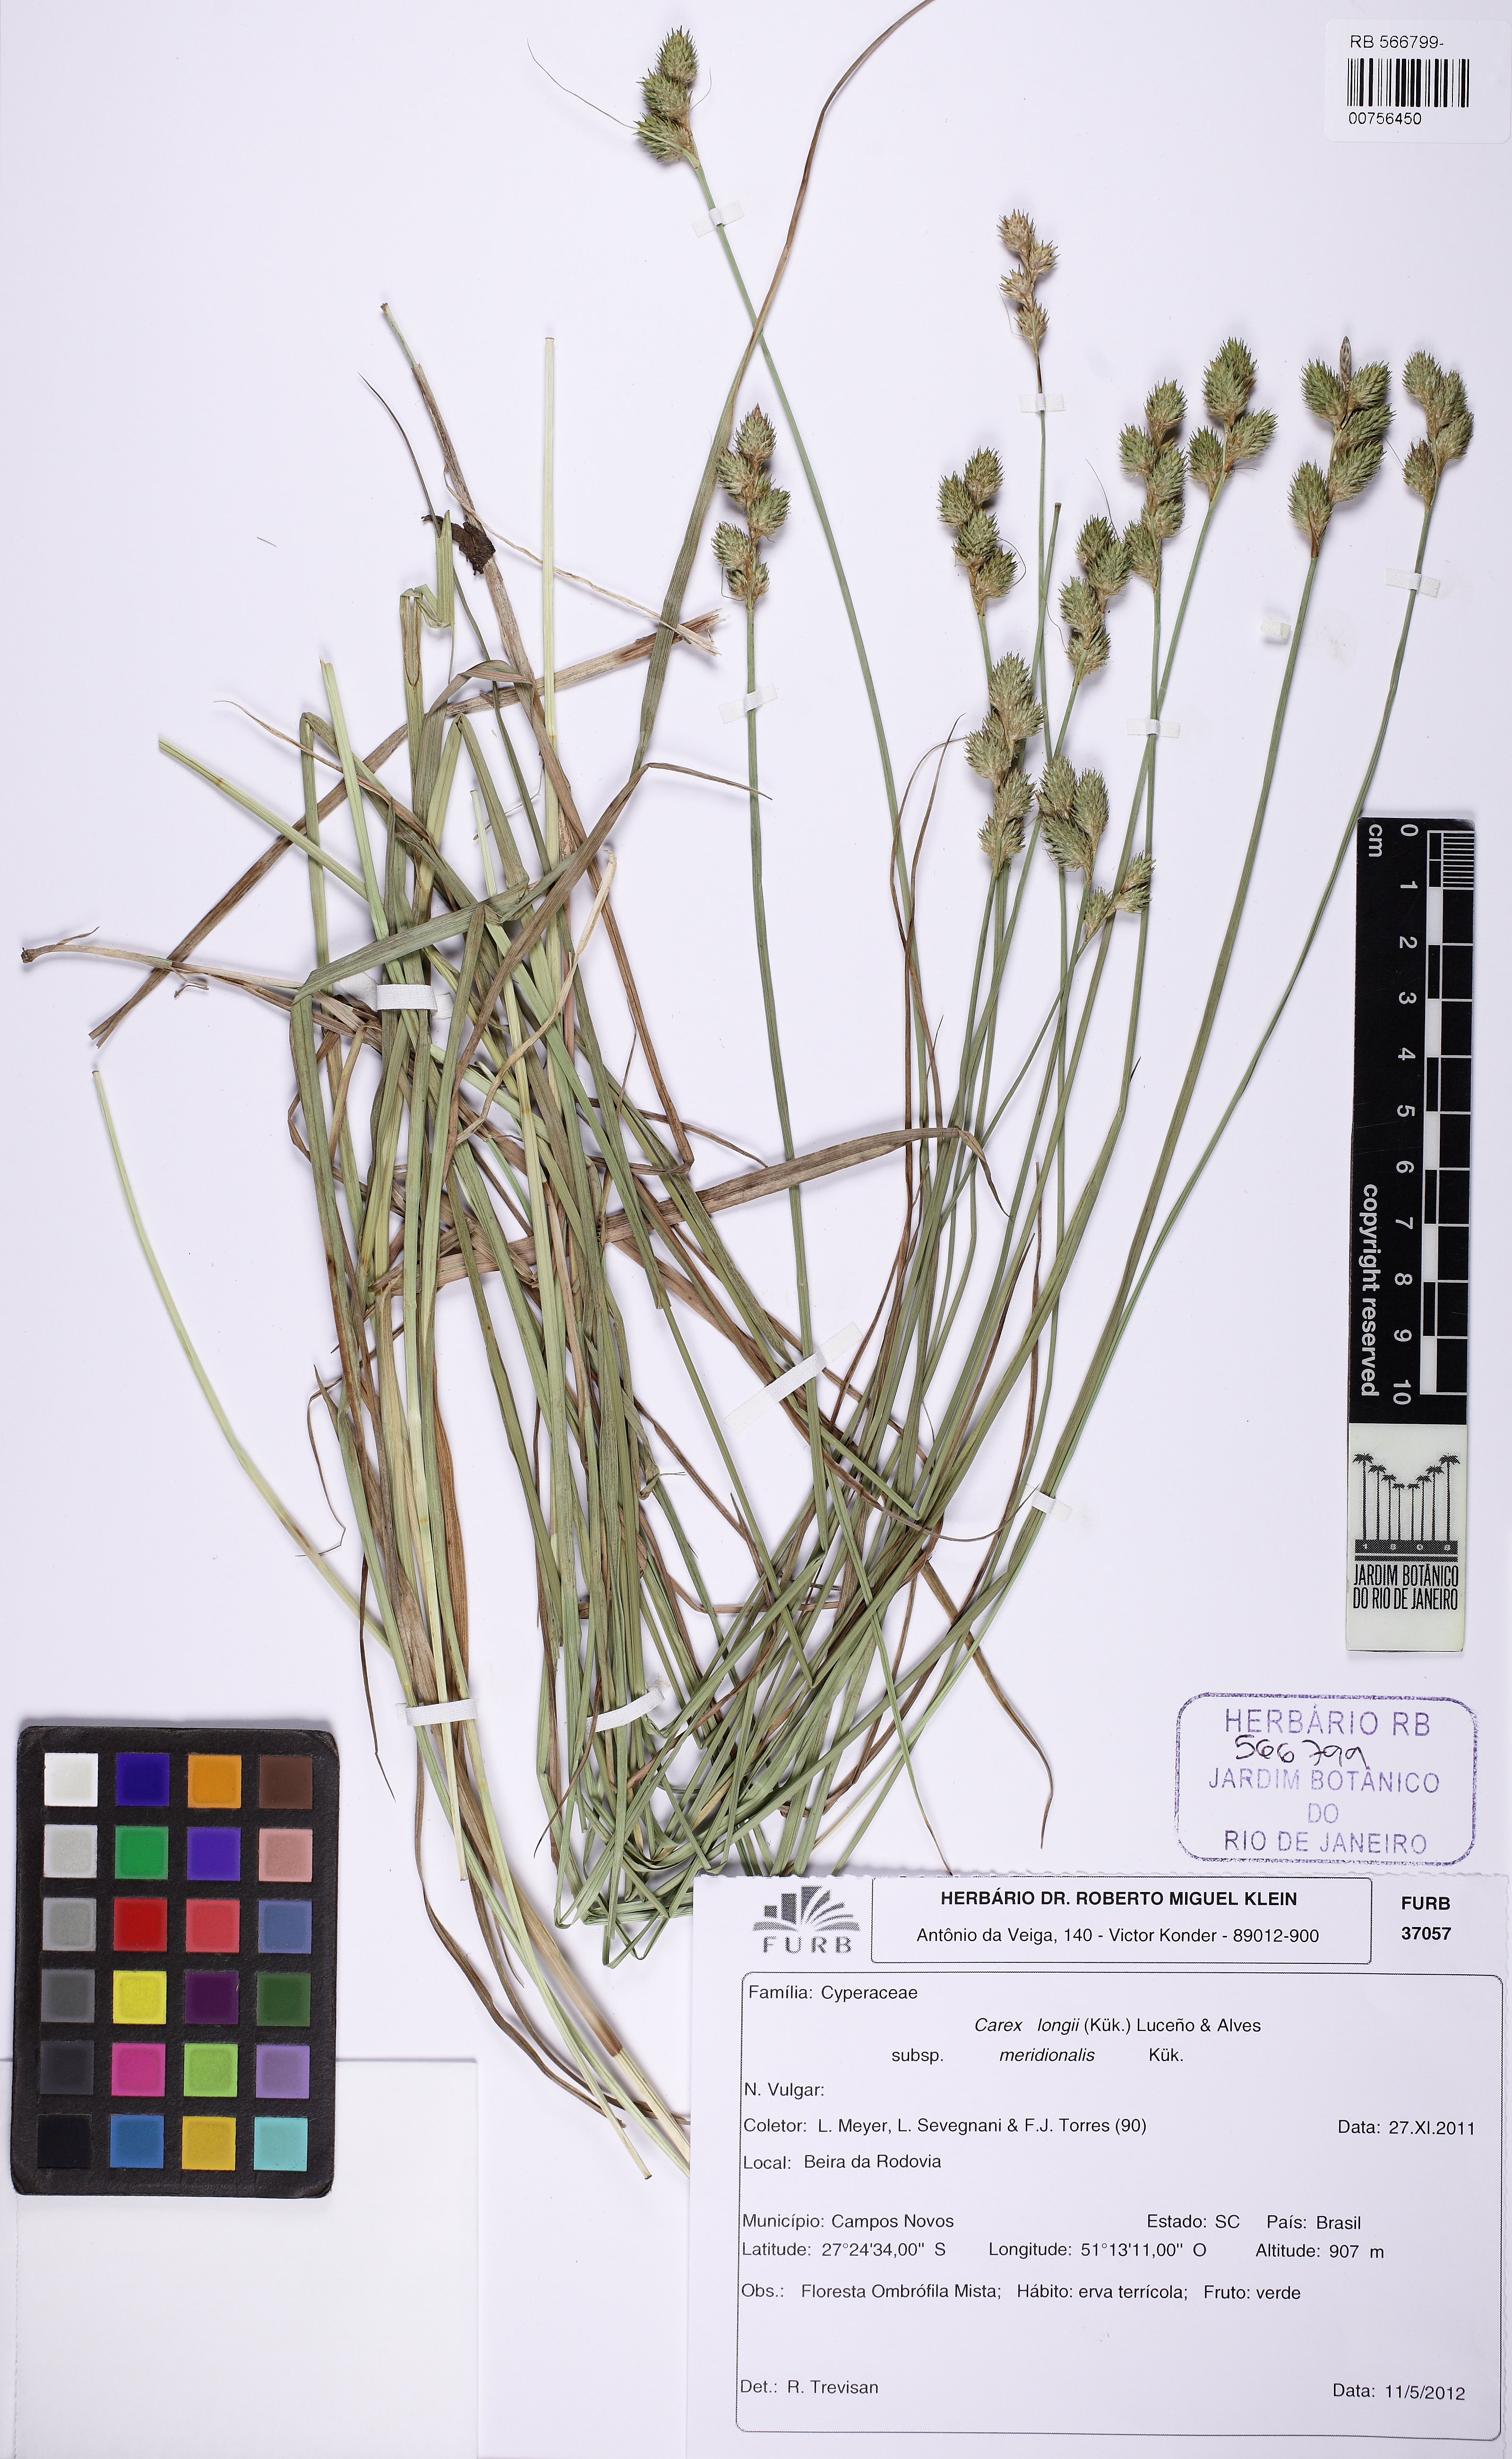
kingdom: Plantae
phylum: Tracheophyta
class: Liliopsida
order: Poales
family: Cyperaceae
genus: Carex
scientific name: Carex meridionalis
